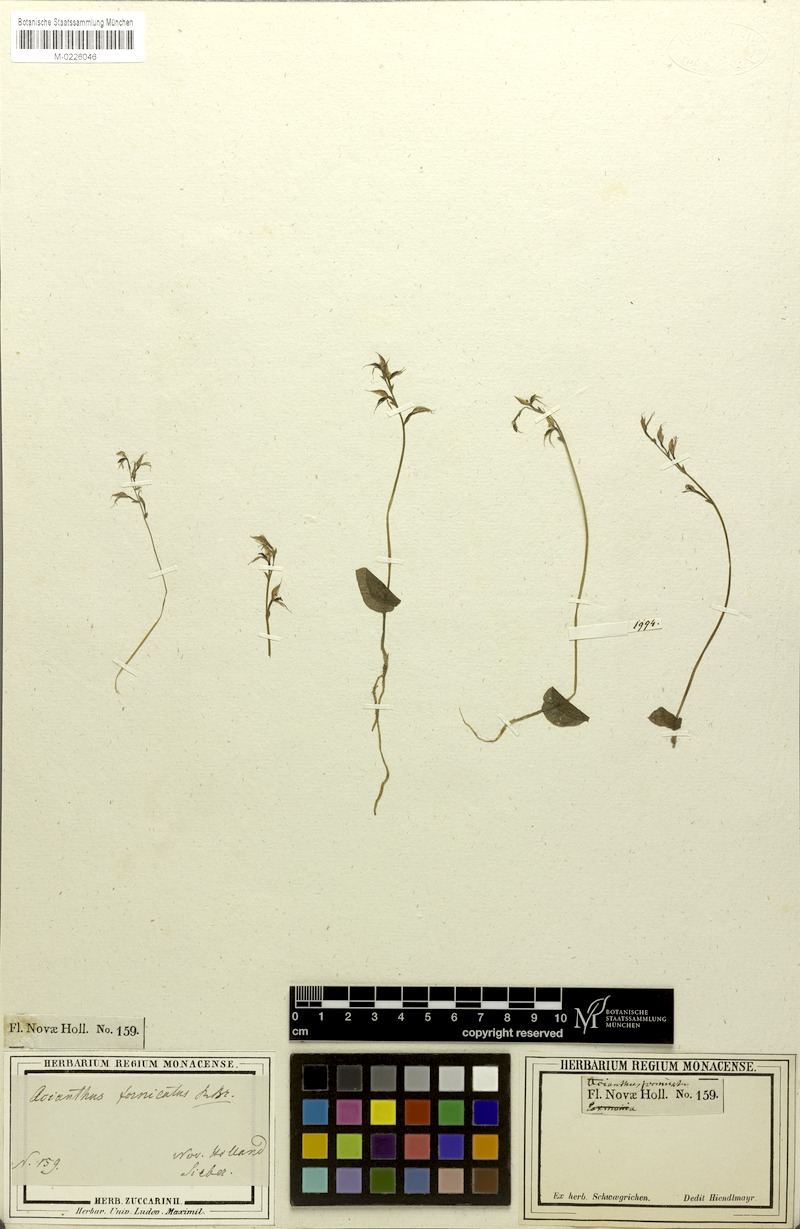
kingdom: Plantae
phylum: Tracheophyta
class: Liliopsida
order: Asparagales
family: Orchidaceae
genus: Acianthus
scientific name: Acianthus fornicatus
